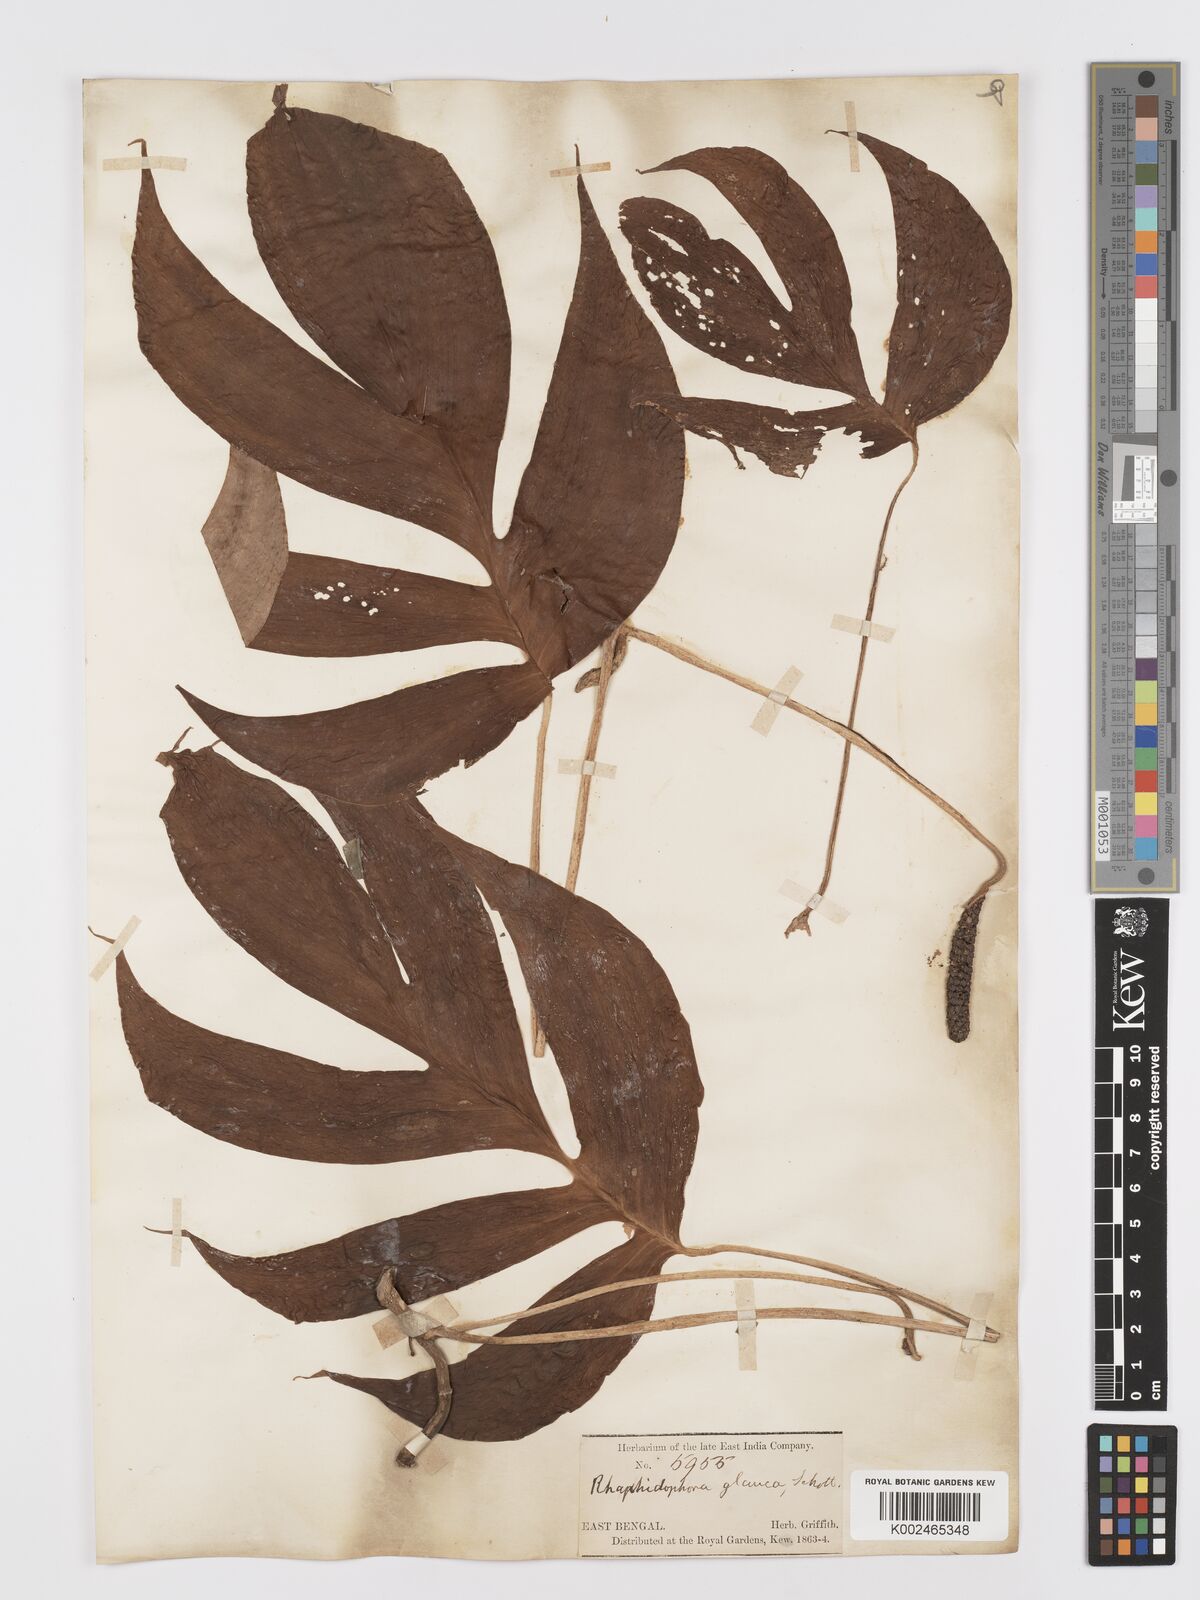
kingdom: Plantae
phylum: Tracheophyta
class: Liliopsida
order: Alismatales
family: Araceae
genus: Rhaphidophora
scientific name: Rhaphidophora glauca
